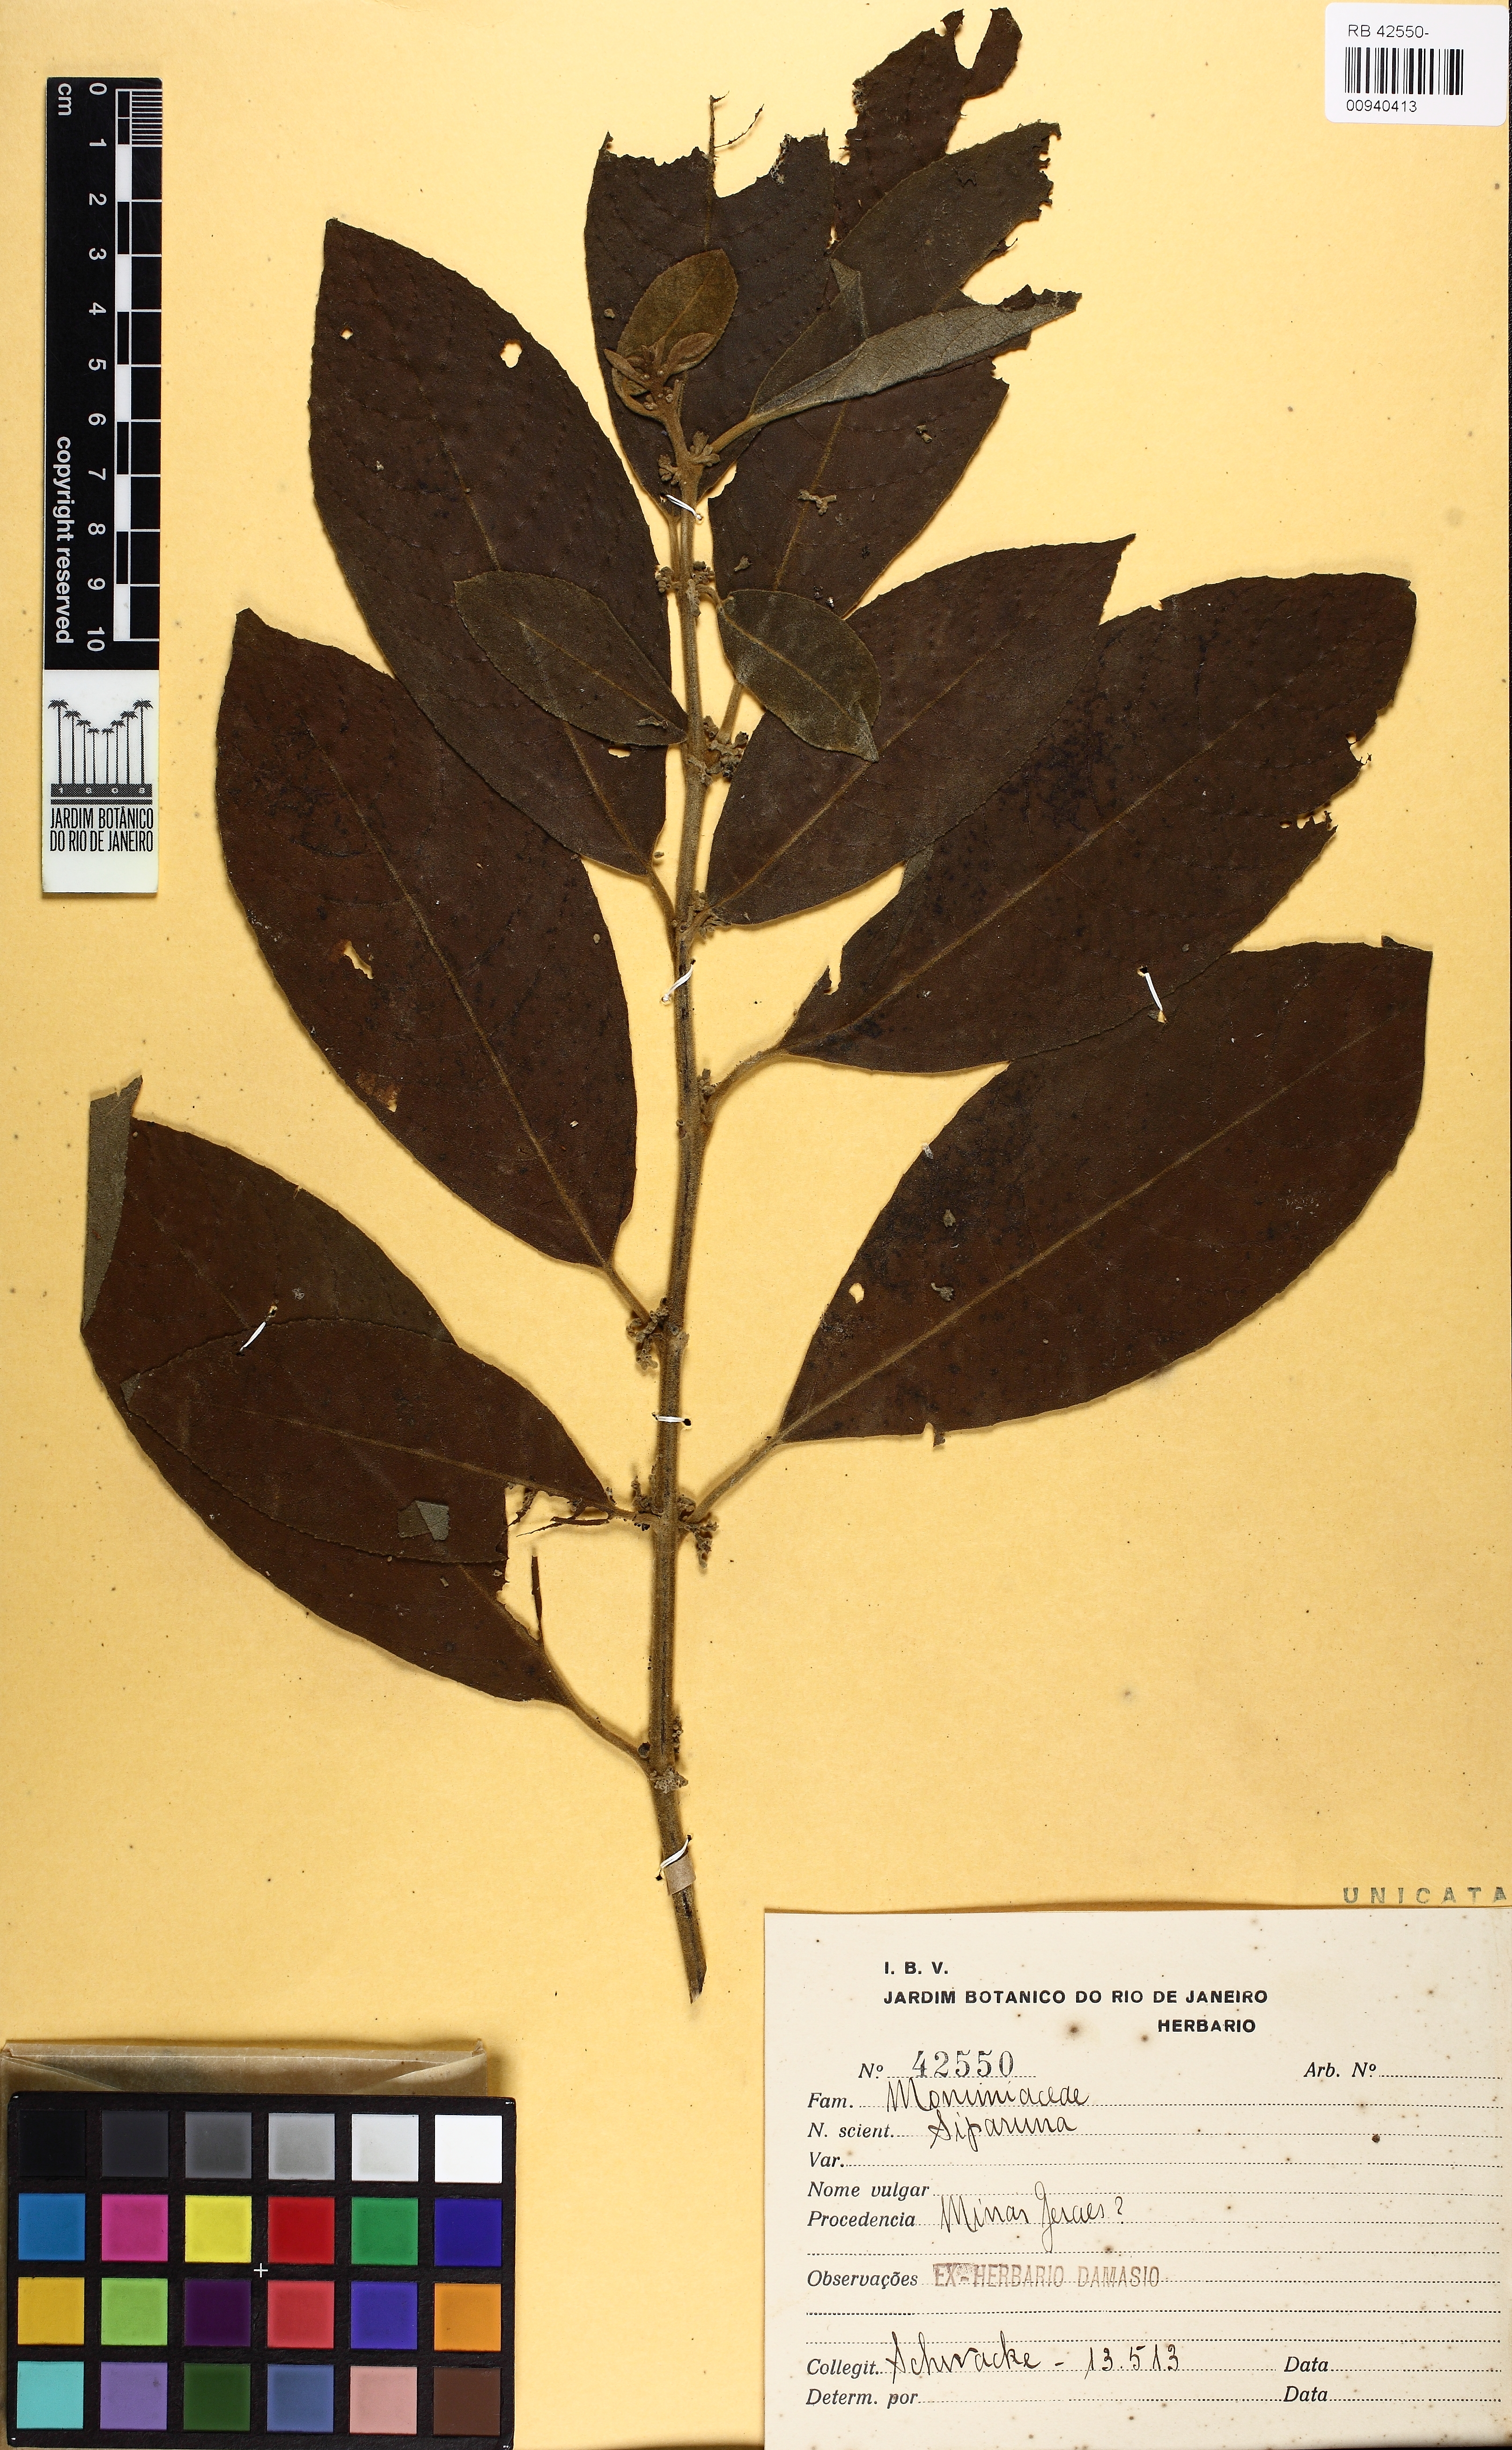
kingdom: Plantae
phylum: Tracheophyta
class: Magnoliopsida
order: Laurales
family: Siparunaceae
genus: Siparuna
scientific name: Siparuna
